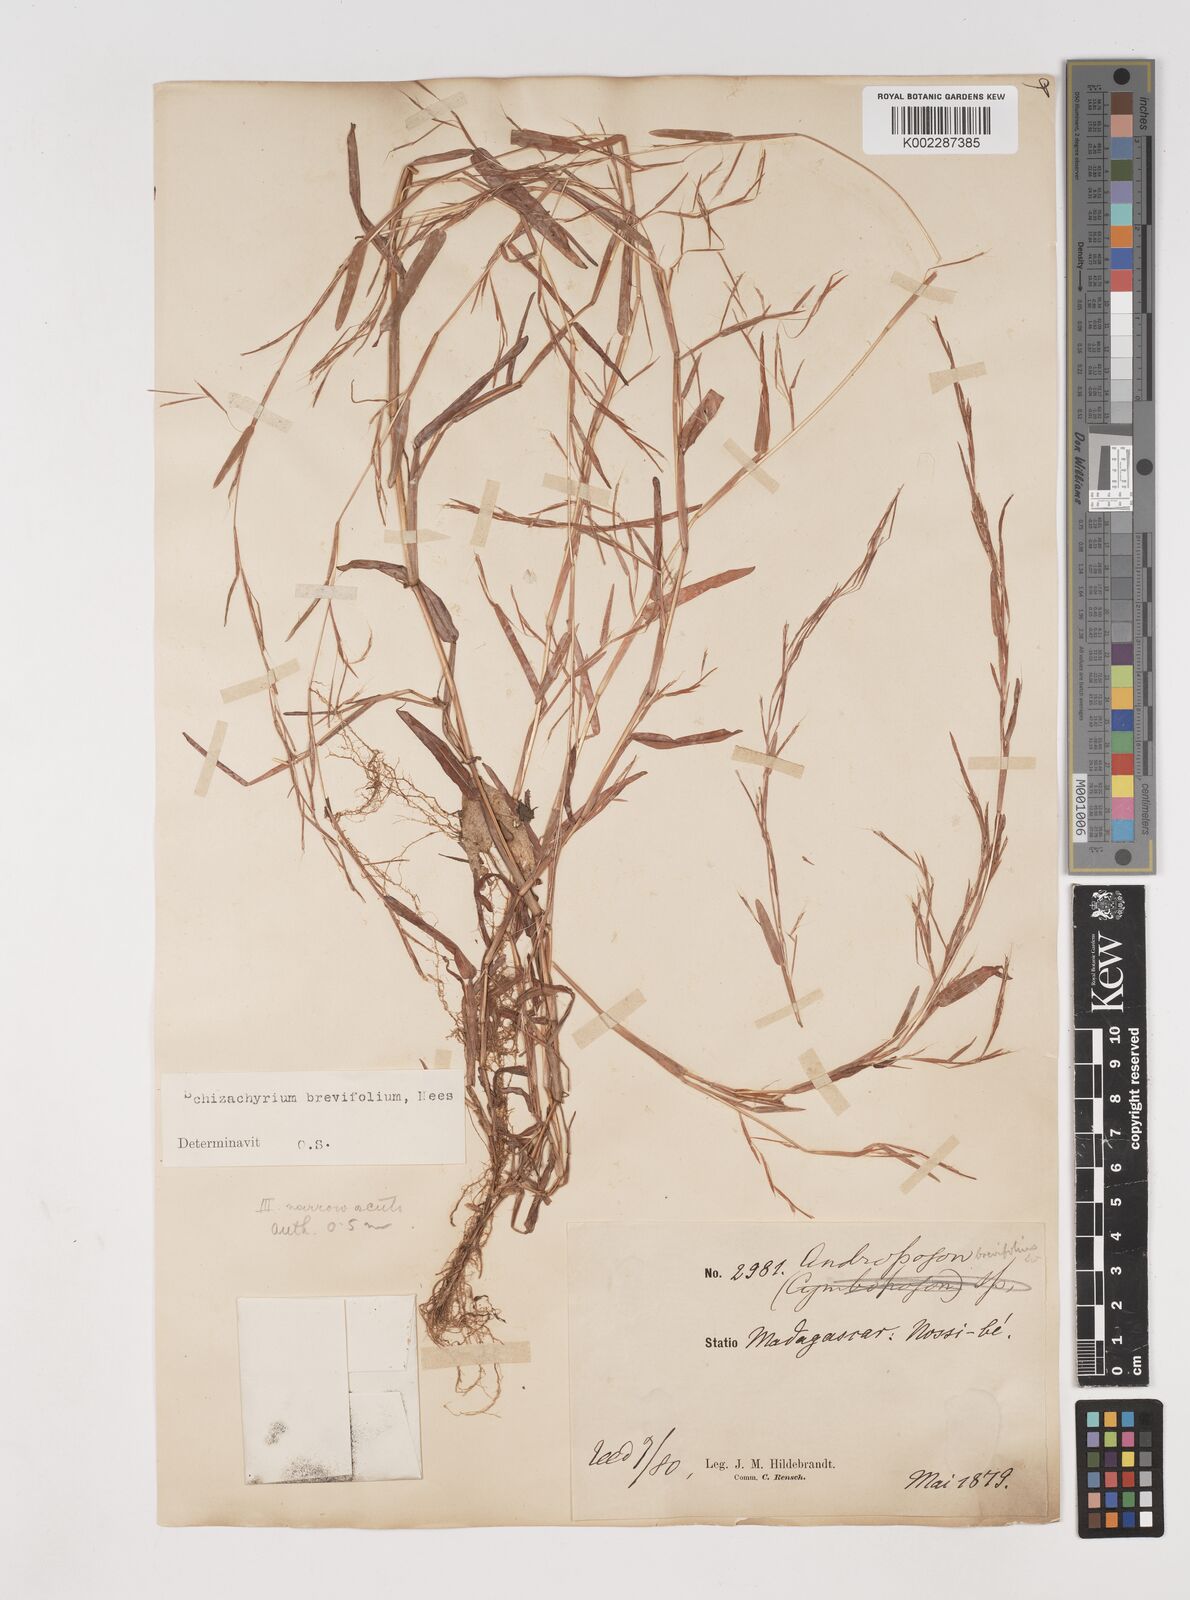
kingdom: Plantae
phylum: Tracheophyta
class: Liliopsida
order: Poales
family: Poaceae
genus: Schizachyrium
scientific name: Schizachyrium brevifolium
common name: Serillo dulce
